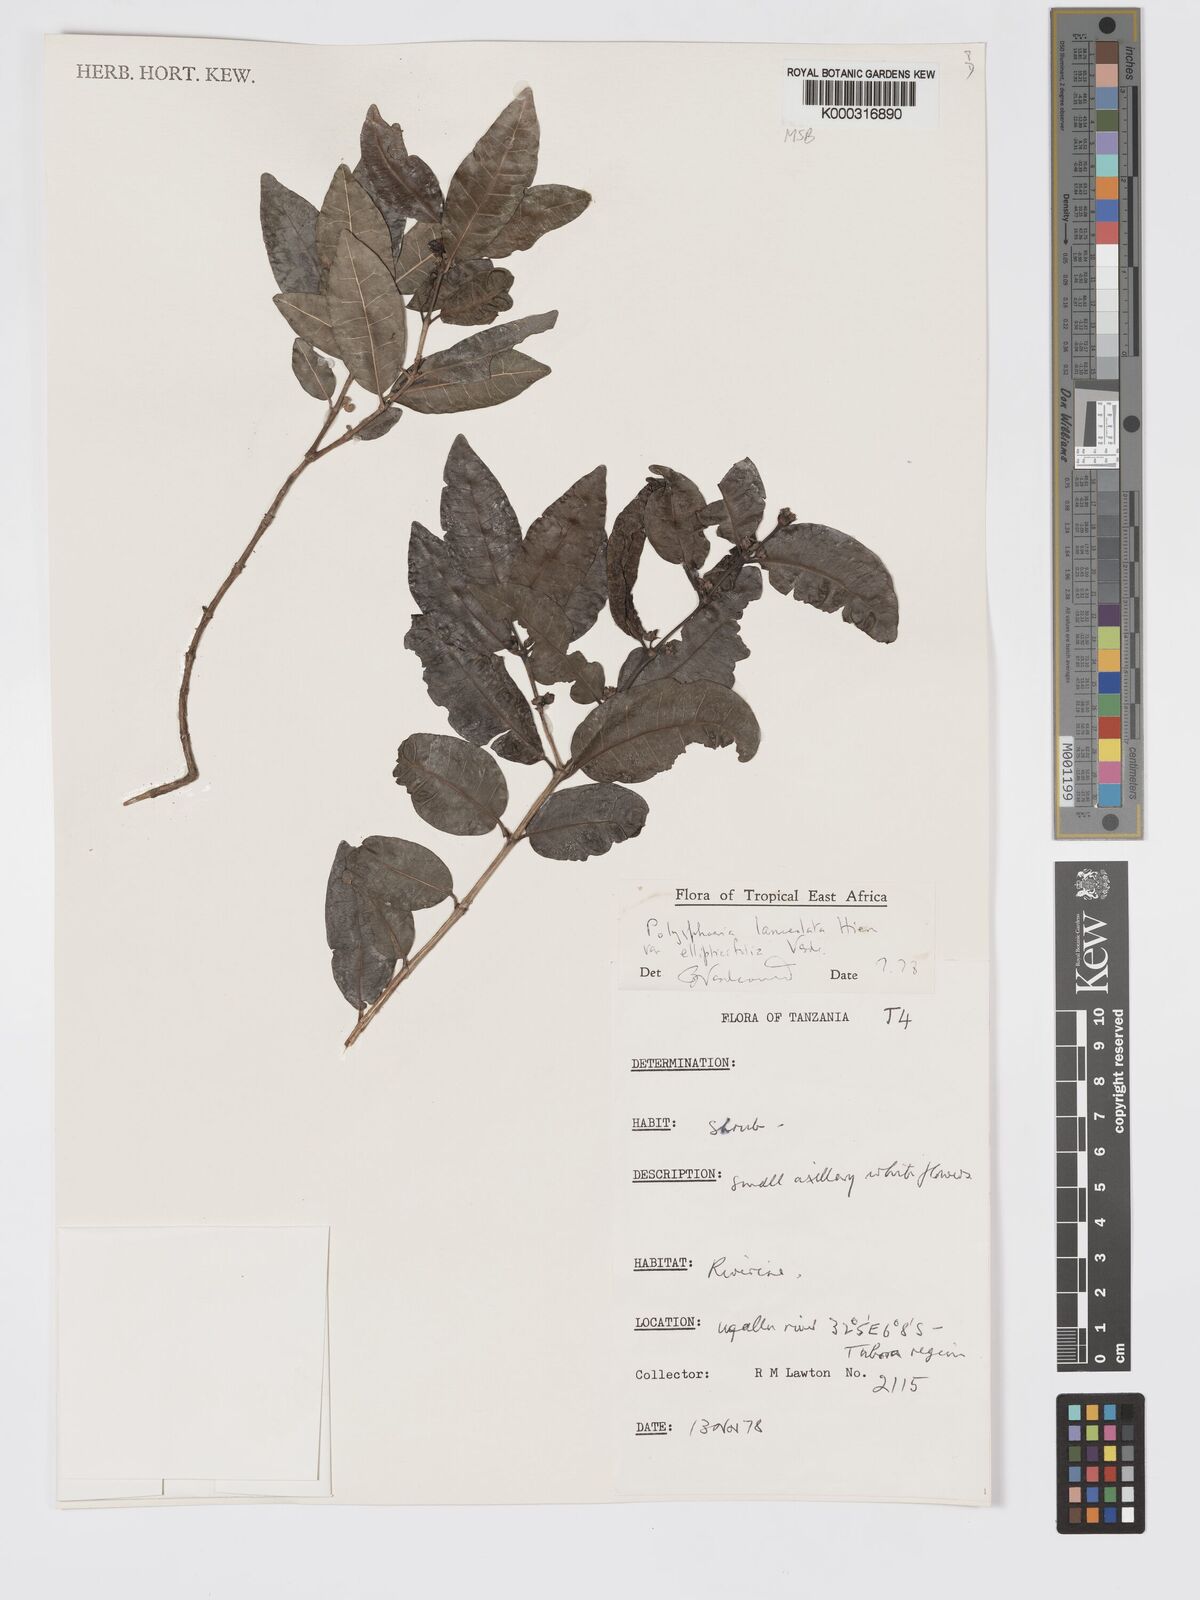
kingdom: Plantae
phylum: Tracheophyta
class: Magnoliopsida
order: Gentianales
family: Rubiaceae
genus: Polysphaeria
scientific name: Polysphaeria lanceolata
